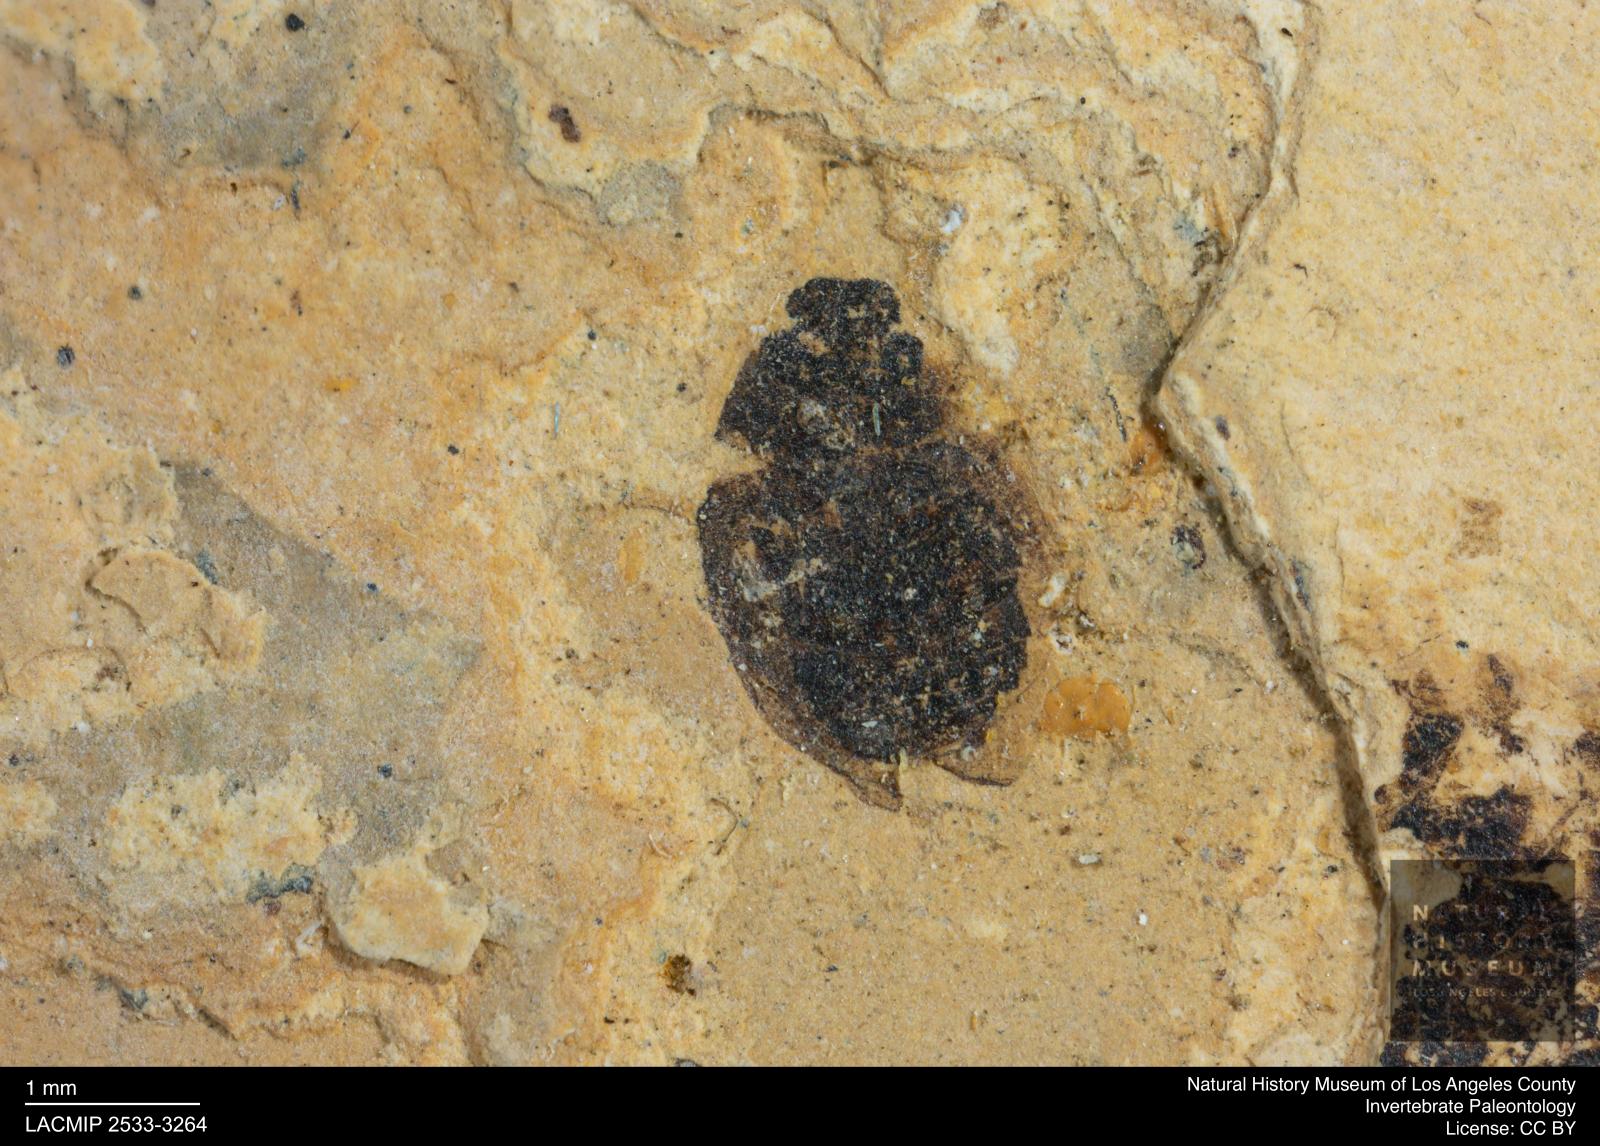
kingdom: Animalia
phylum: Arthropoda
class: Insecta
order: Coleoptera
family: Hydrophilidae
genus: Paracymus
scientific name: Paracymus excitatus
